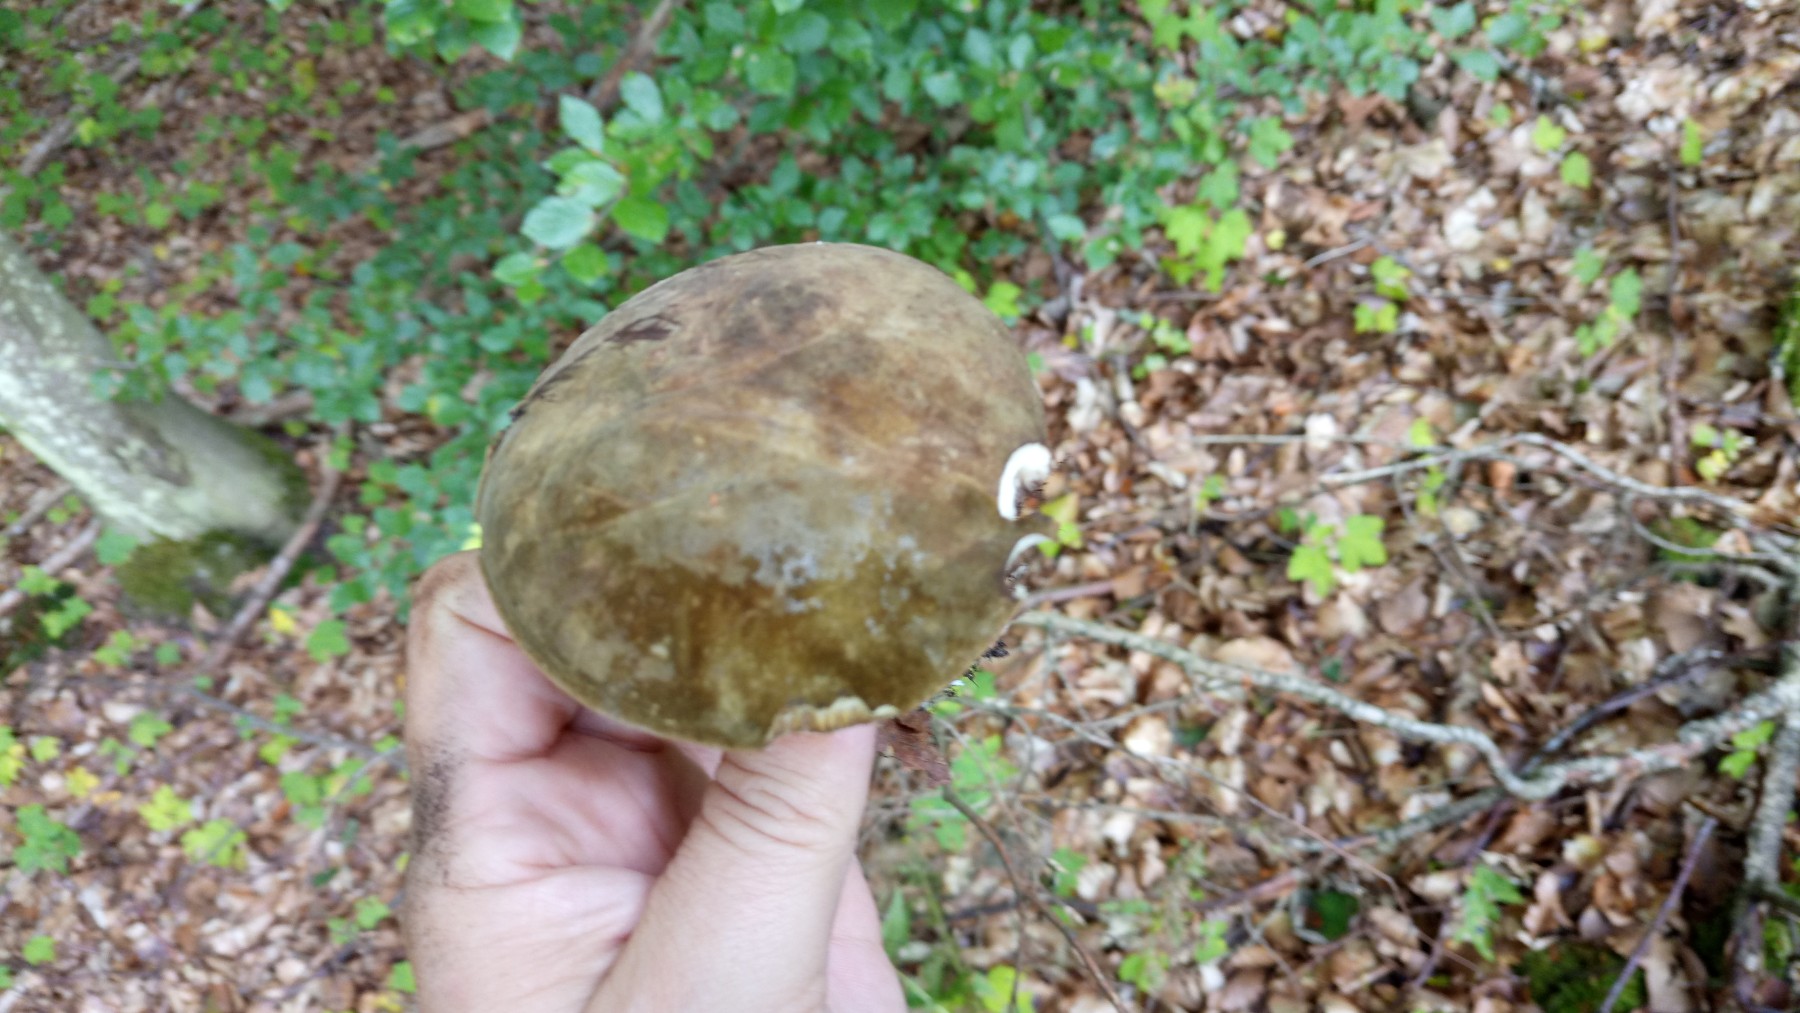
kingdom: Fungi
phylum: Basidiomycota
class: Agaricomycetes
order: Boletales
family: Boletaceae
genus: Porphyrellus
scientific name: Porphyrellus porphyrosporus
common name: sodrørhat
